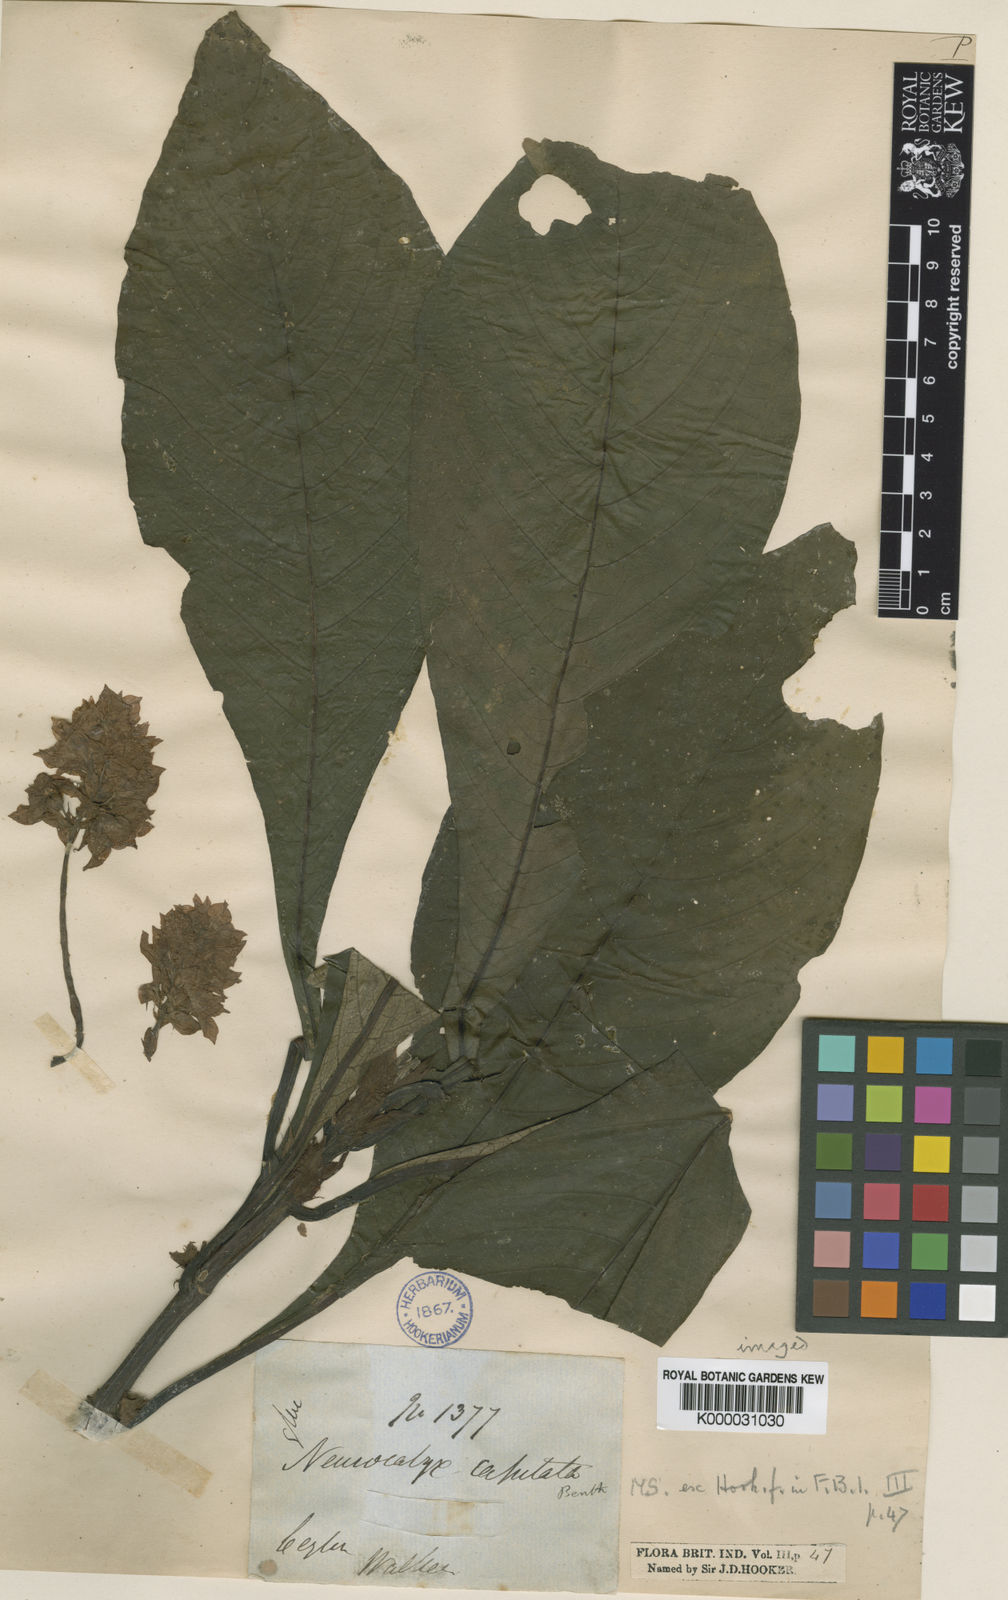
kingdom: Plantae
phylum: Tracheophyta
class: Magnoliopsida
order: Gentianales
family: Rubiaceae
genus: Neurocalyx
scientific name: Neurocalyx calycinus
